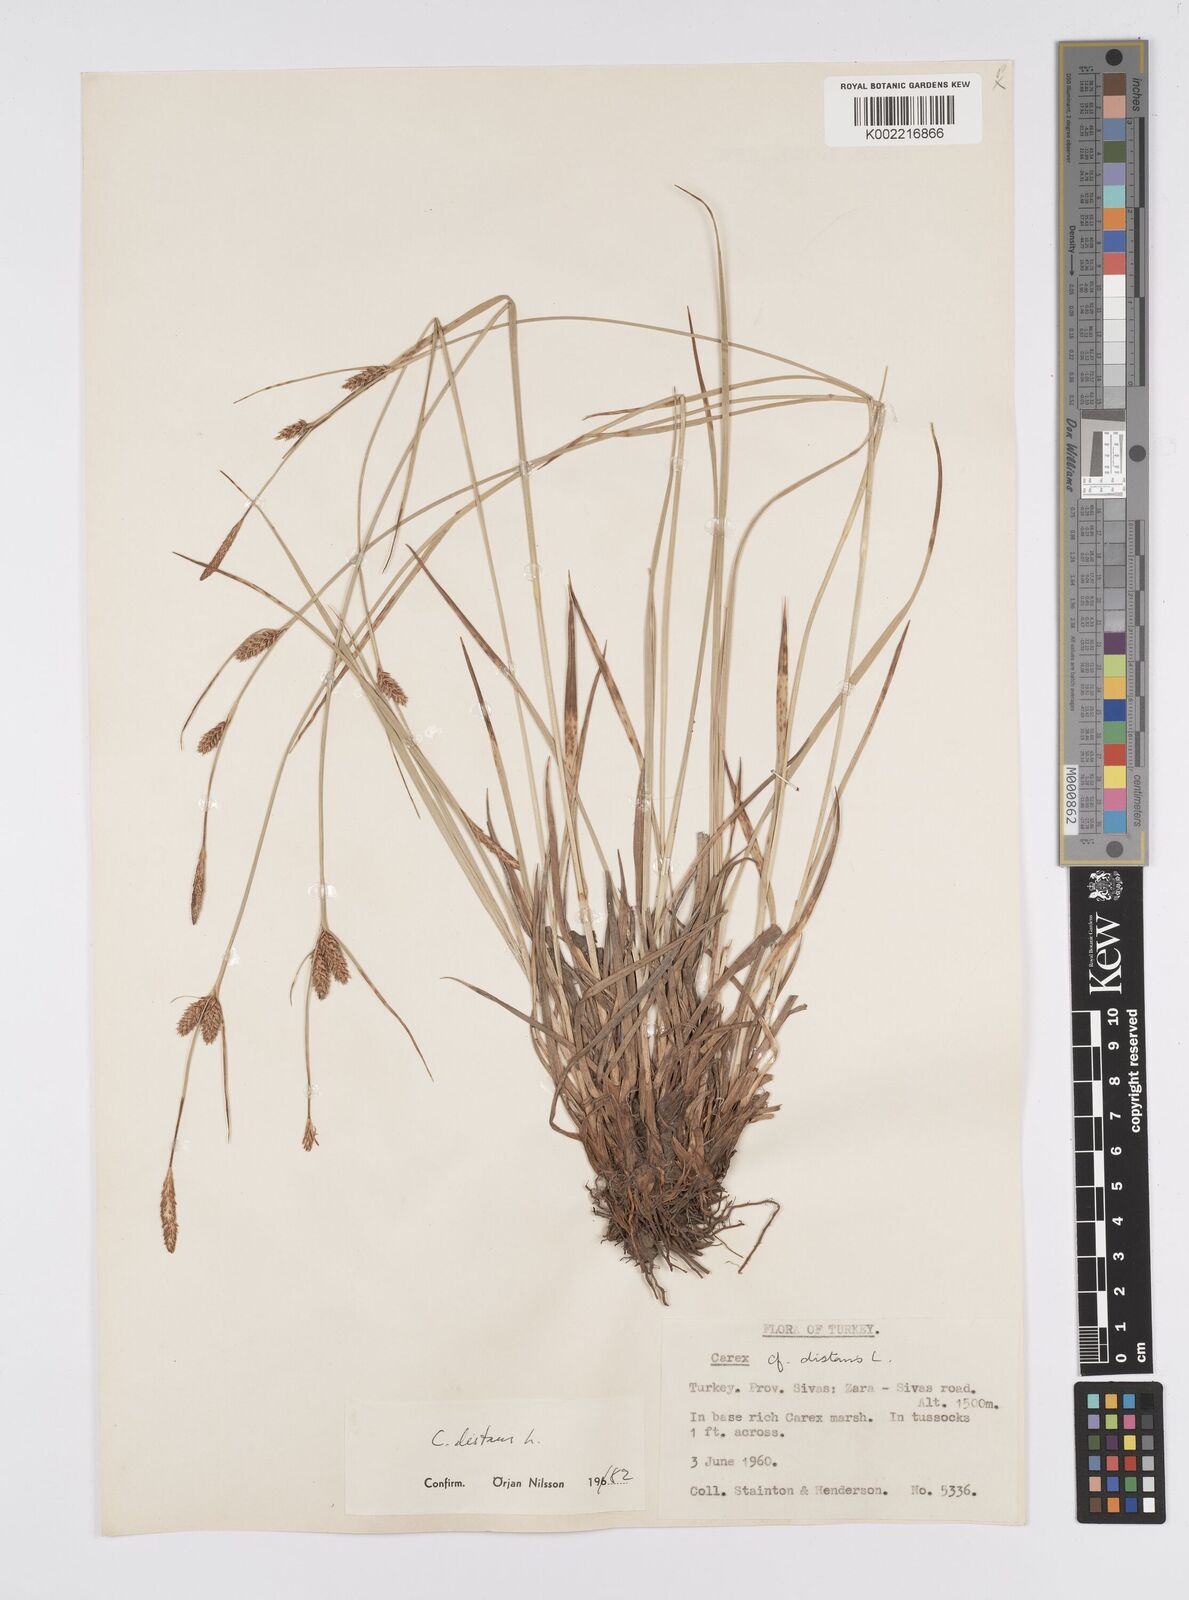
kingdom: Plantae
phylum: Tracheophyta
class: Liliopsida
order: Poales
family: Cyperaceae
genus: Carex
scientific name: Carex distans
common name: Distant sedge
